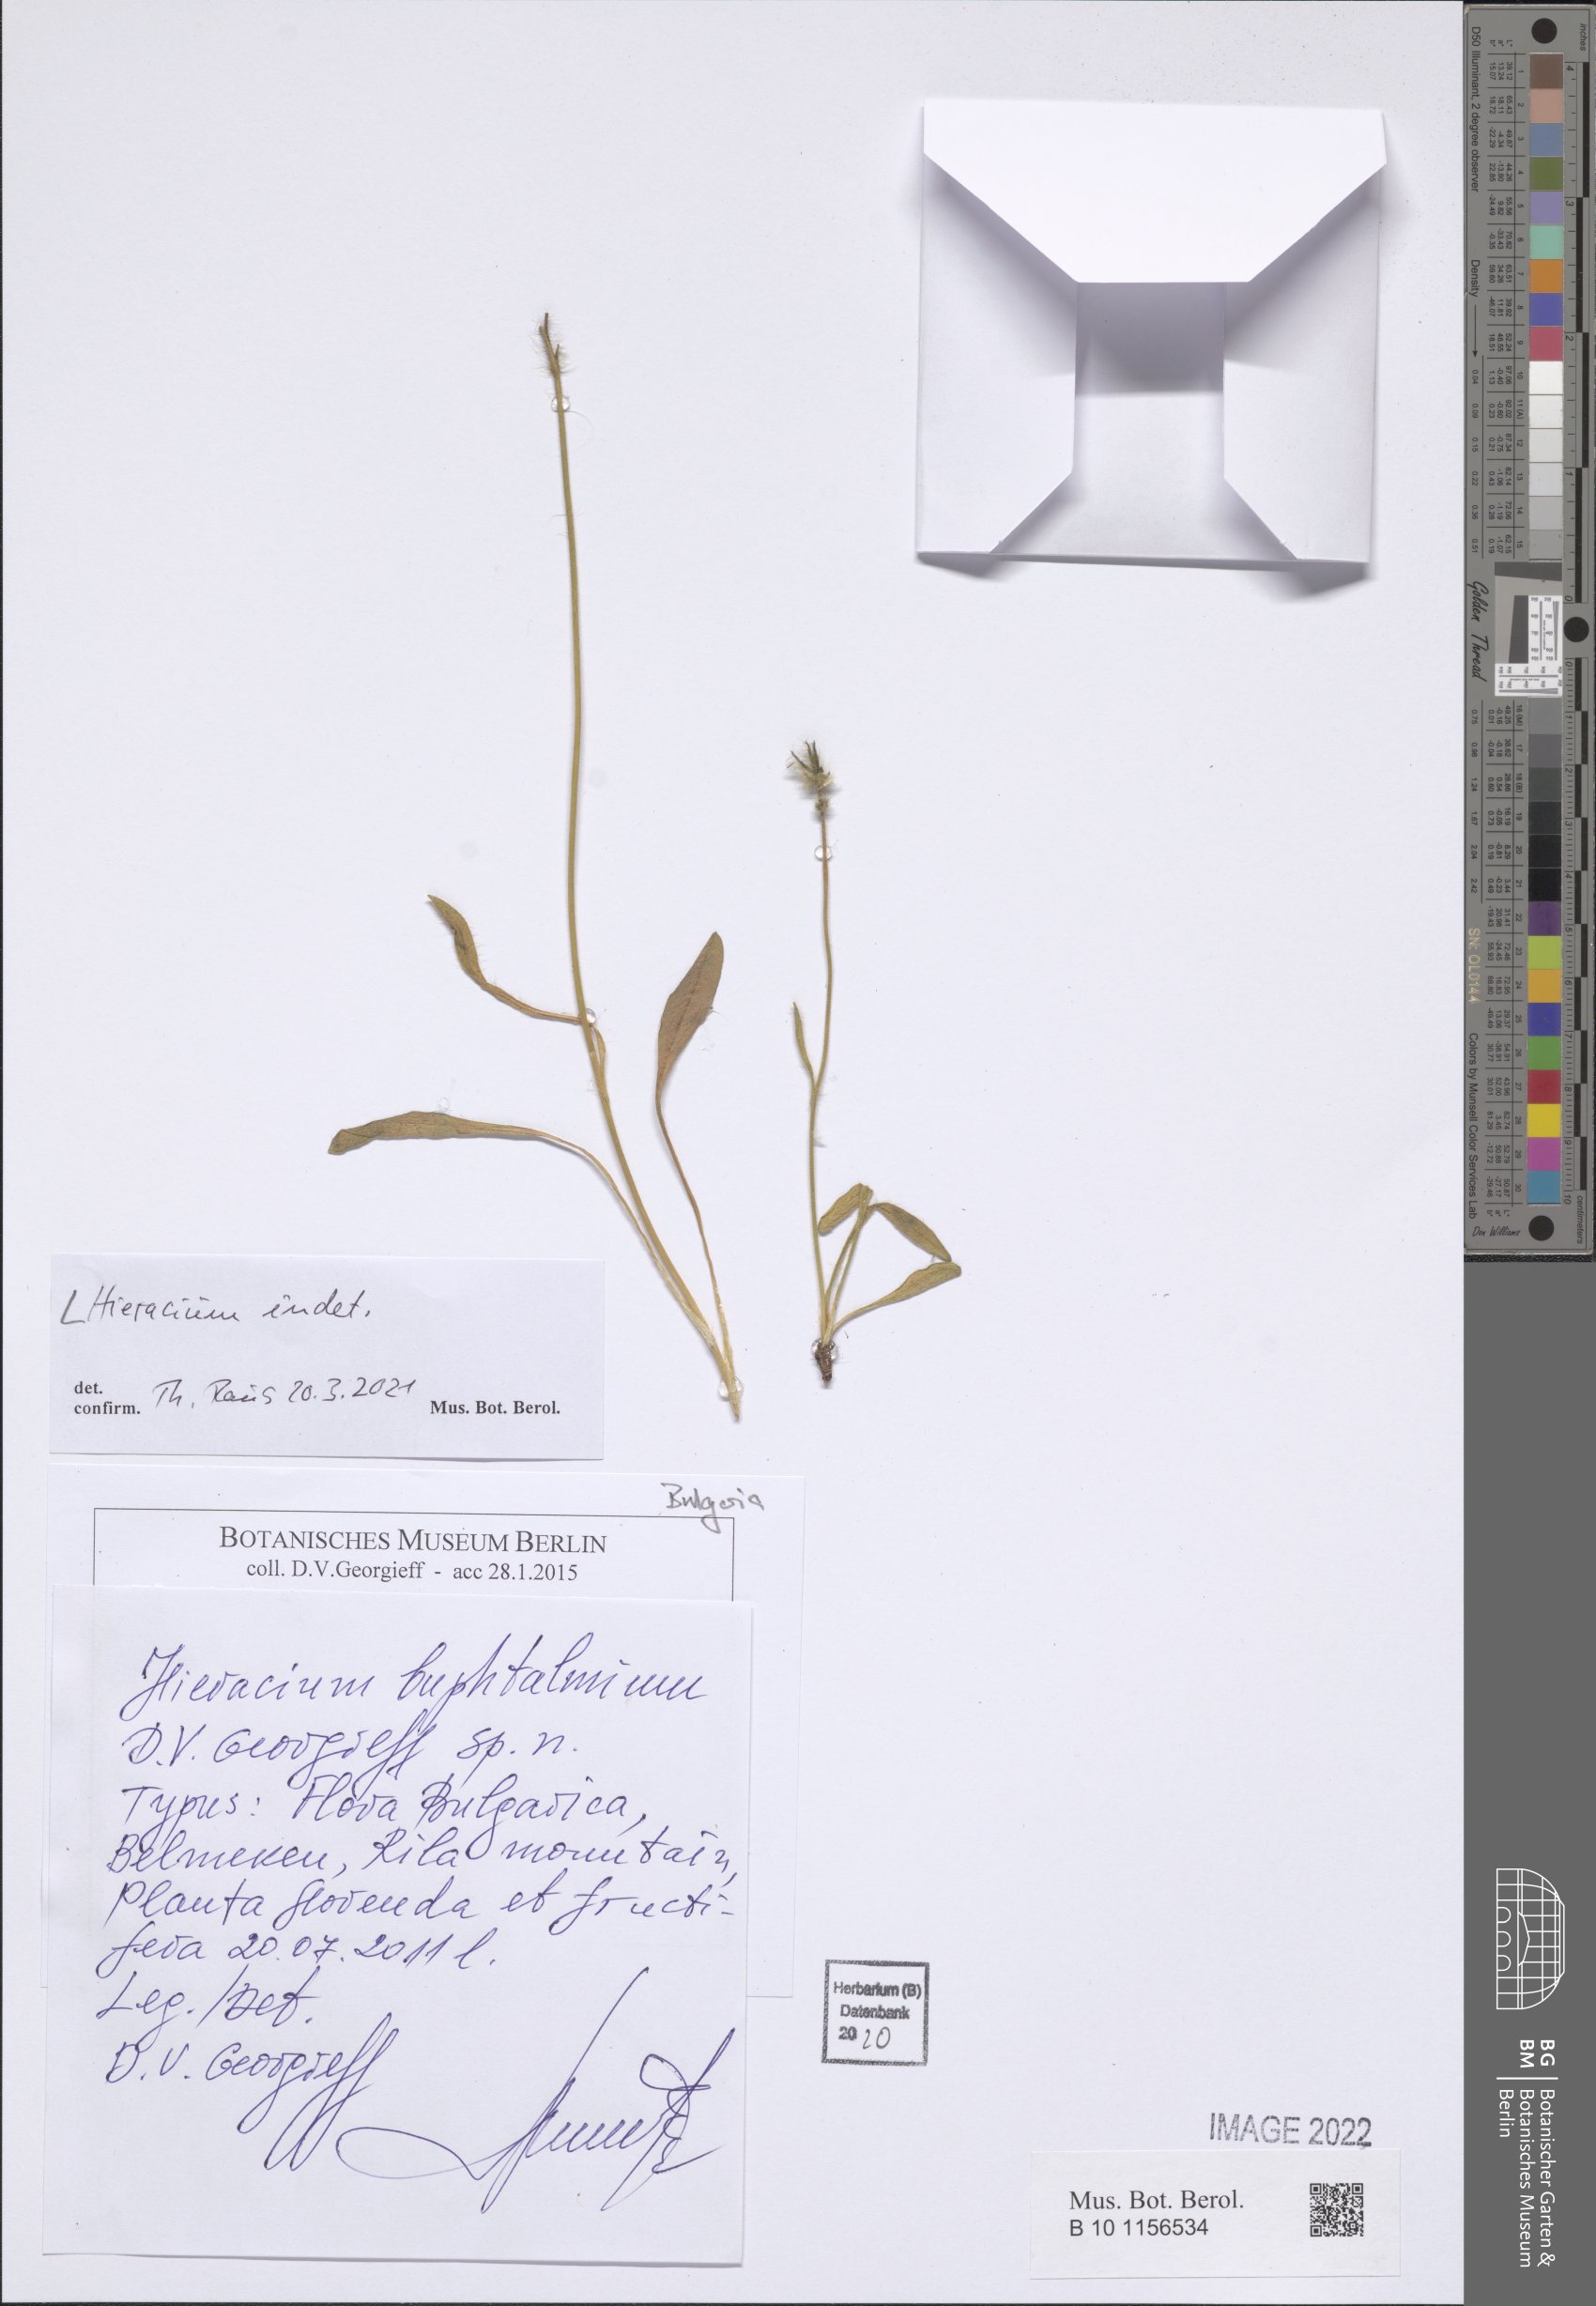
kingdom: Plantae
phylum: Tracheophyta
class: Magnoliopsida
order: Asterales
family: Asteraceae
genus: Hieracium
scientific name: Hieracium
